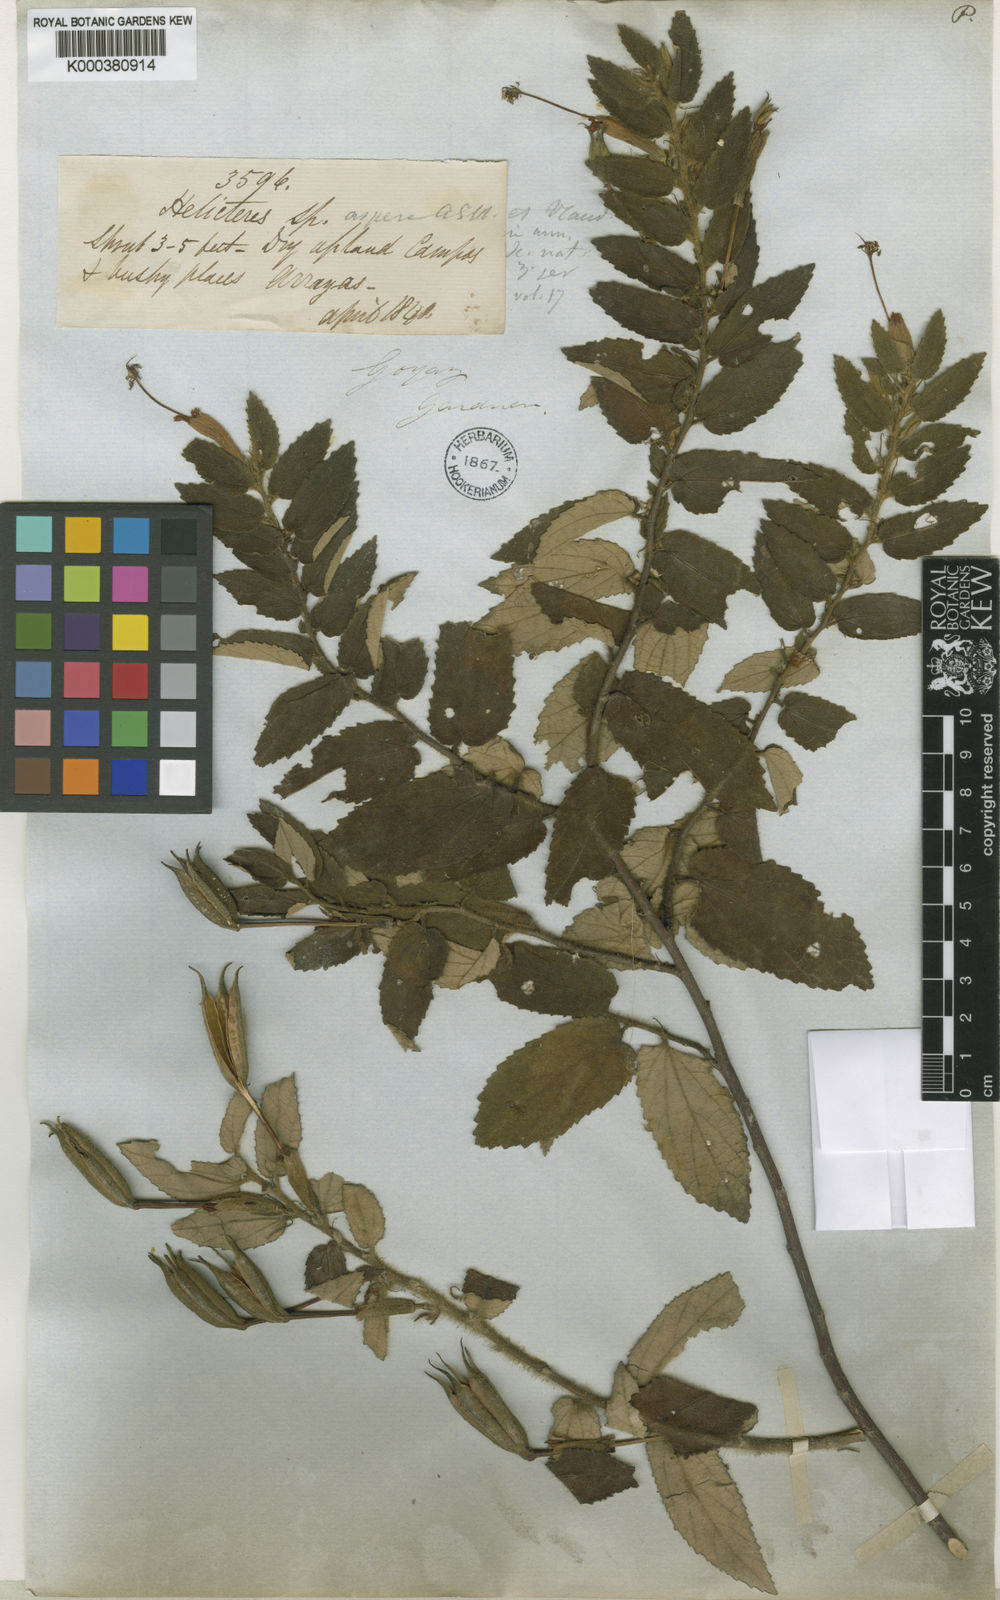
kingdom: Plantae
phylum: Tracheophyta
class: Magnoliopsida
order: Malvales
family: Malvaceae
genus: Helicteres
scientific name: Helicteres aspera
